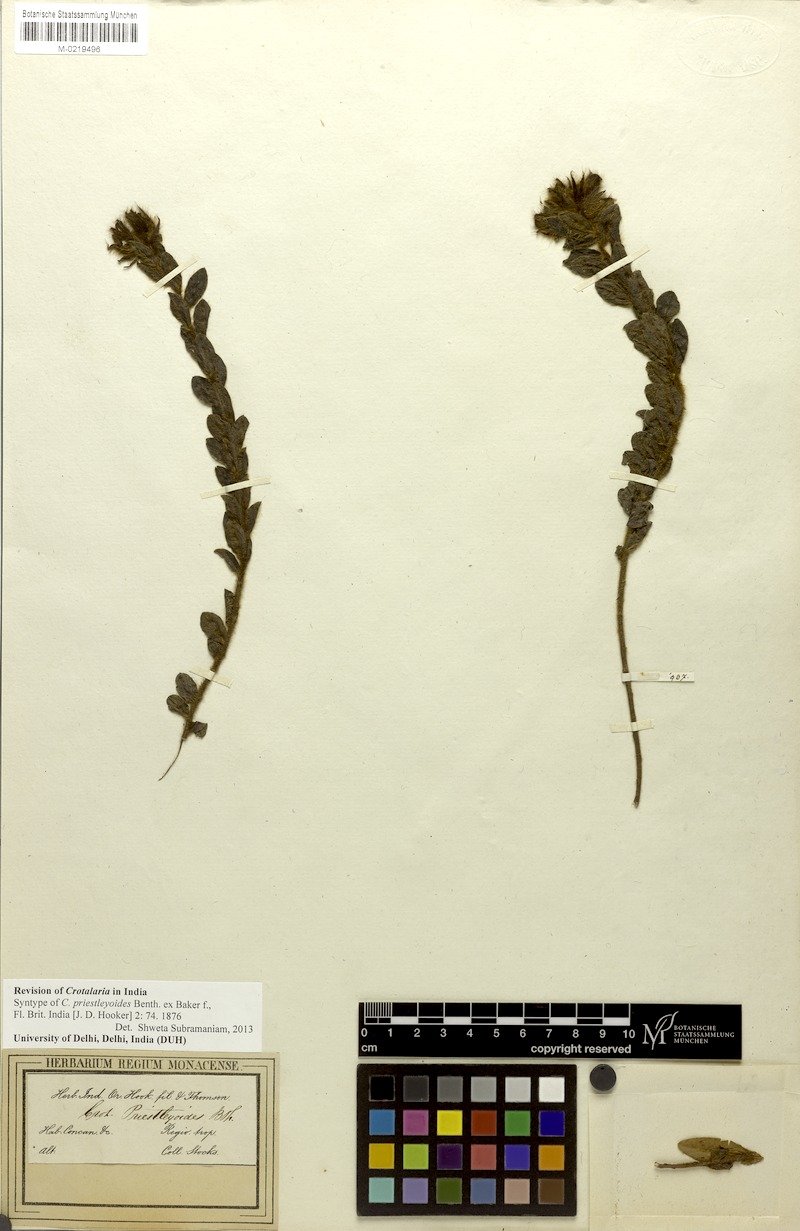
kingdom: Plantae
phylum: Tracheophyta
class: Magnoliopsida
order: Fabales
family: Fabaceae
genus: Crotalaria
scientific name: Crotalaria priestleyoides
